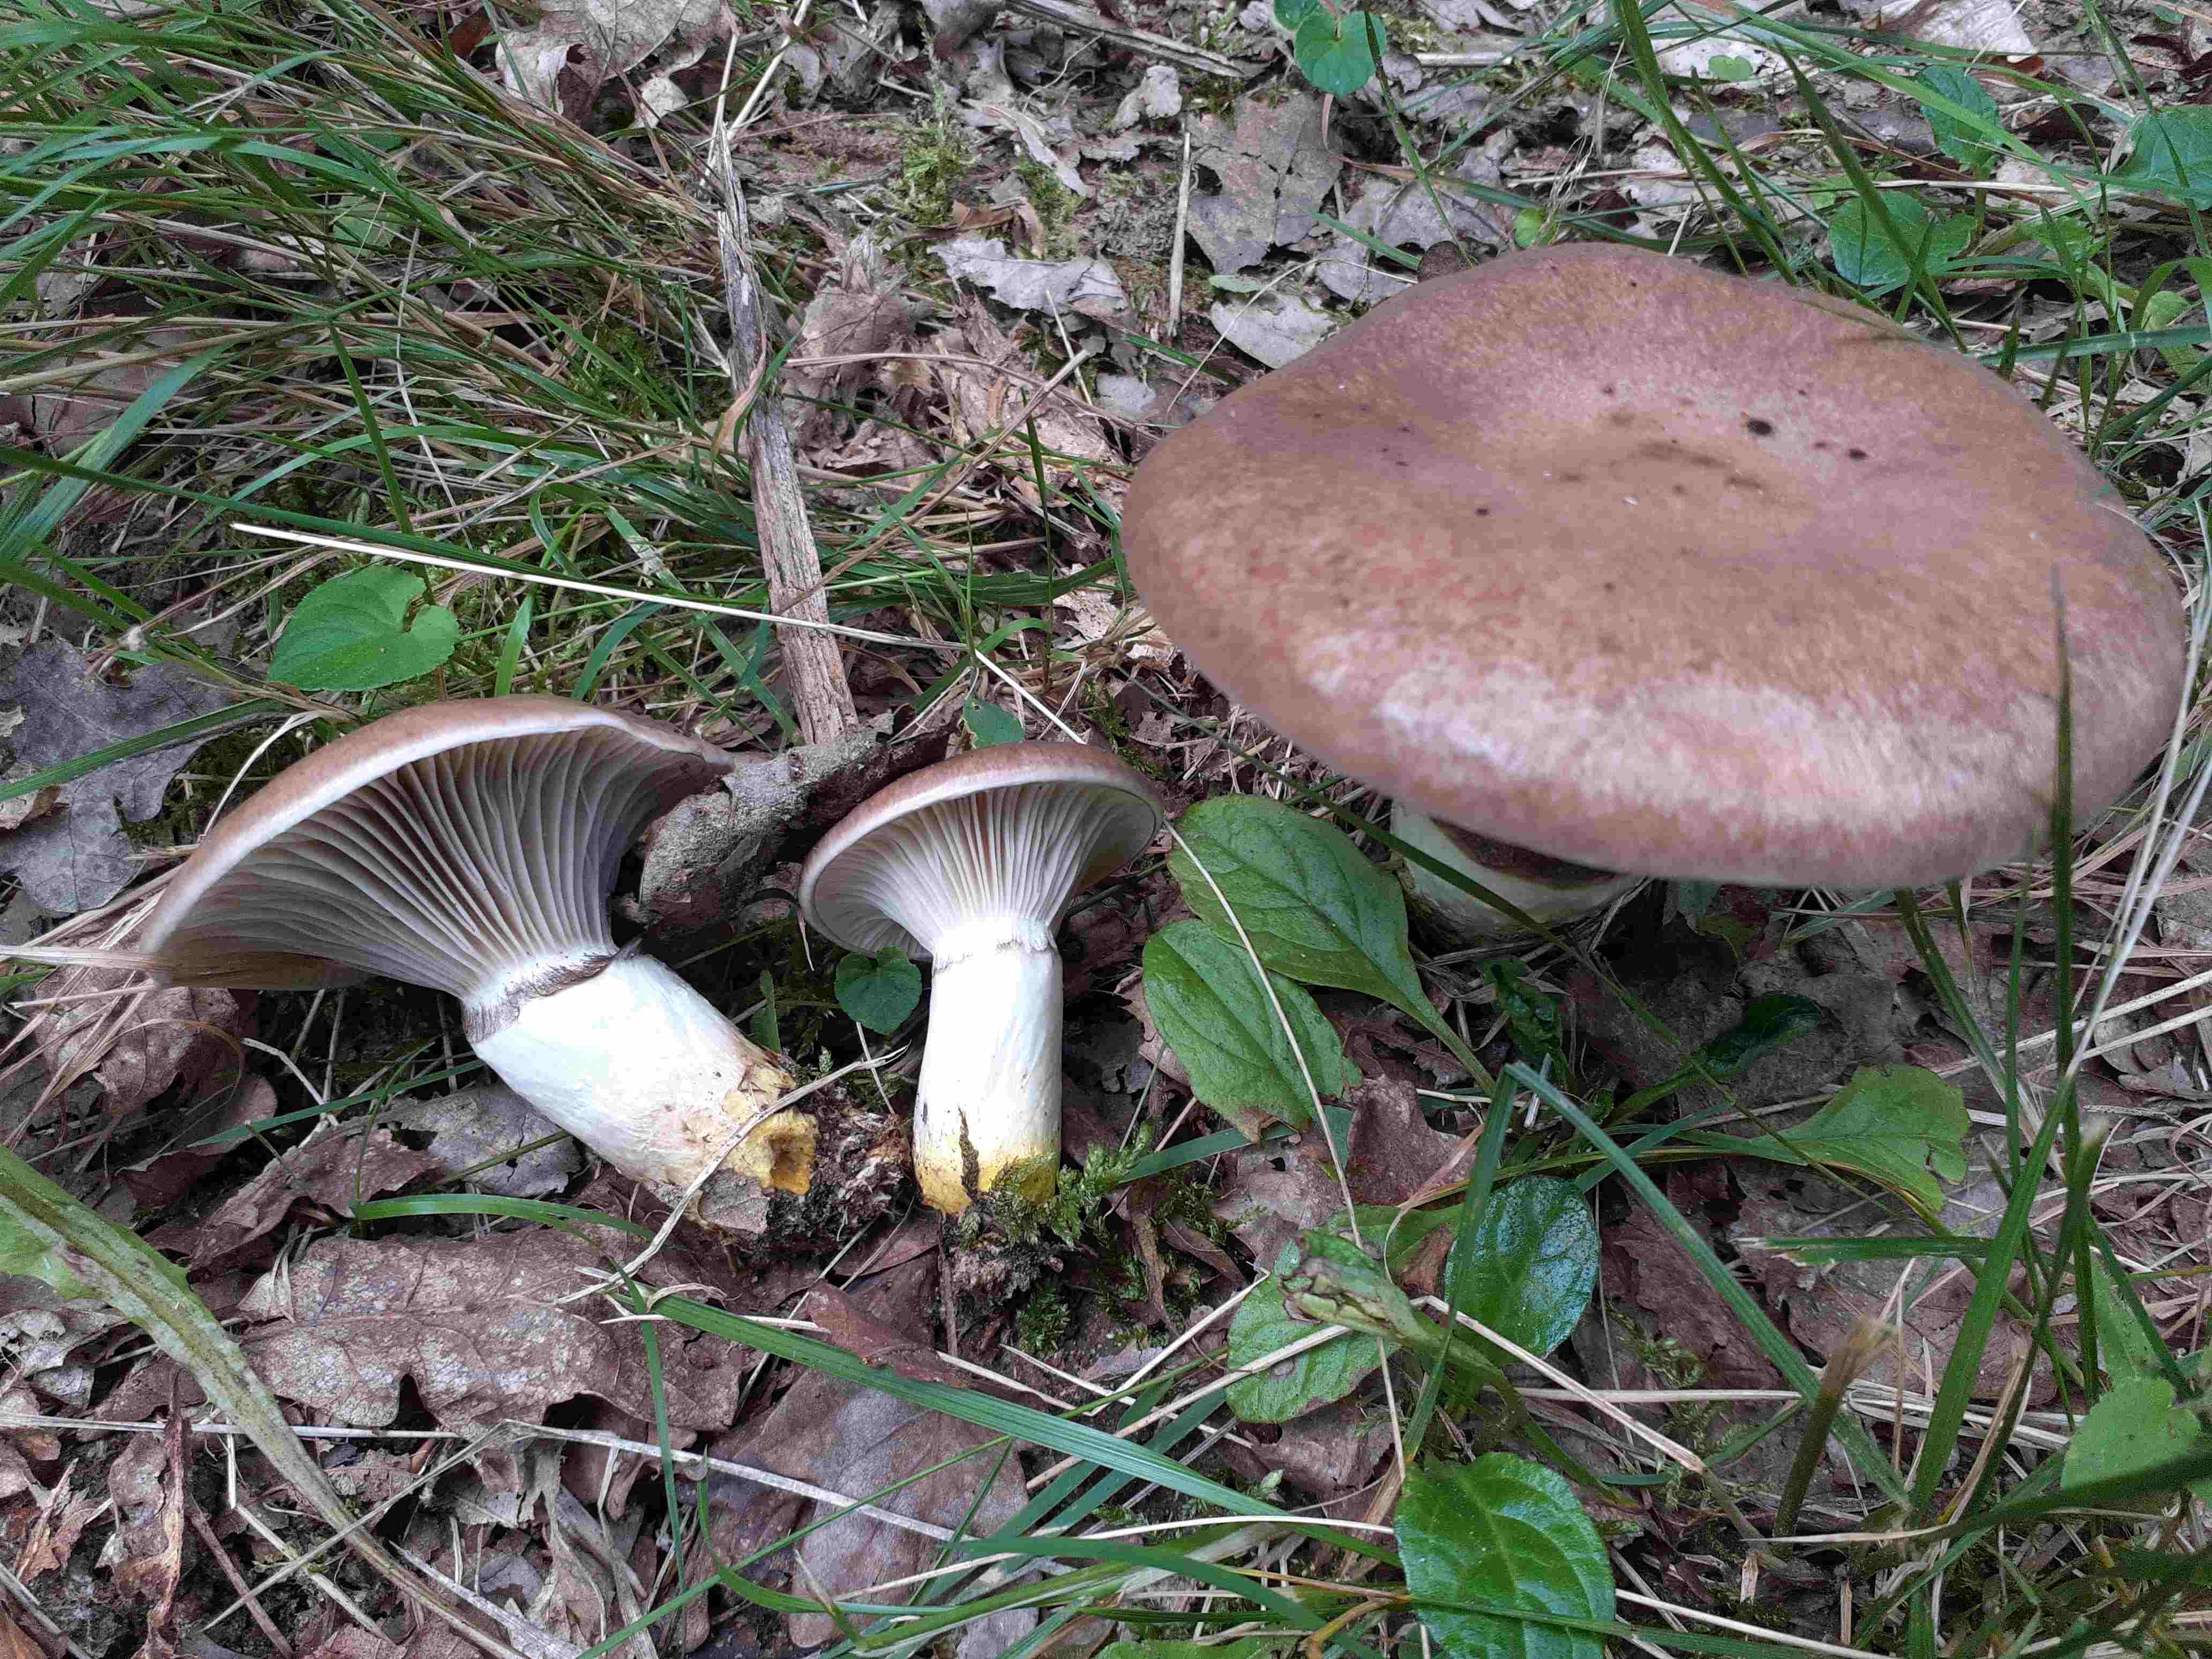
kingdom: Fungi
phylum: Basidiomycota
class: Agaricomycetes
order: Boletales
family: Gomphidiaceae
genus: Gomphidius
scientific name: Gomphidius glutinosus
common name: grå slimslør
